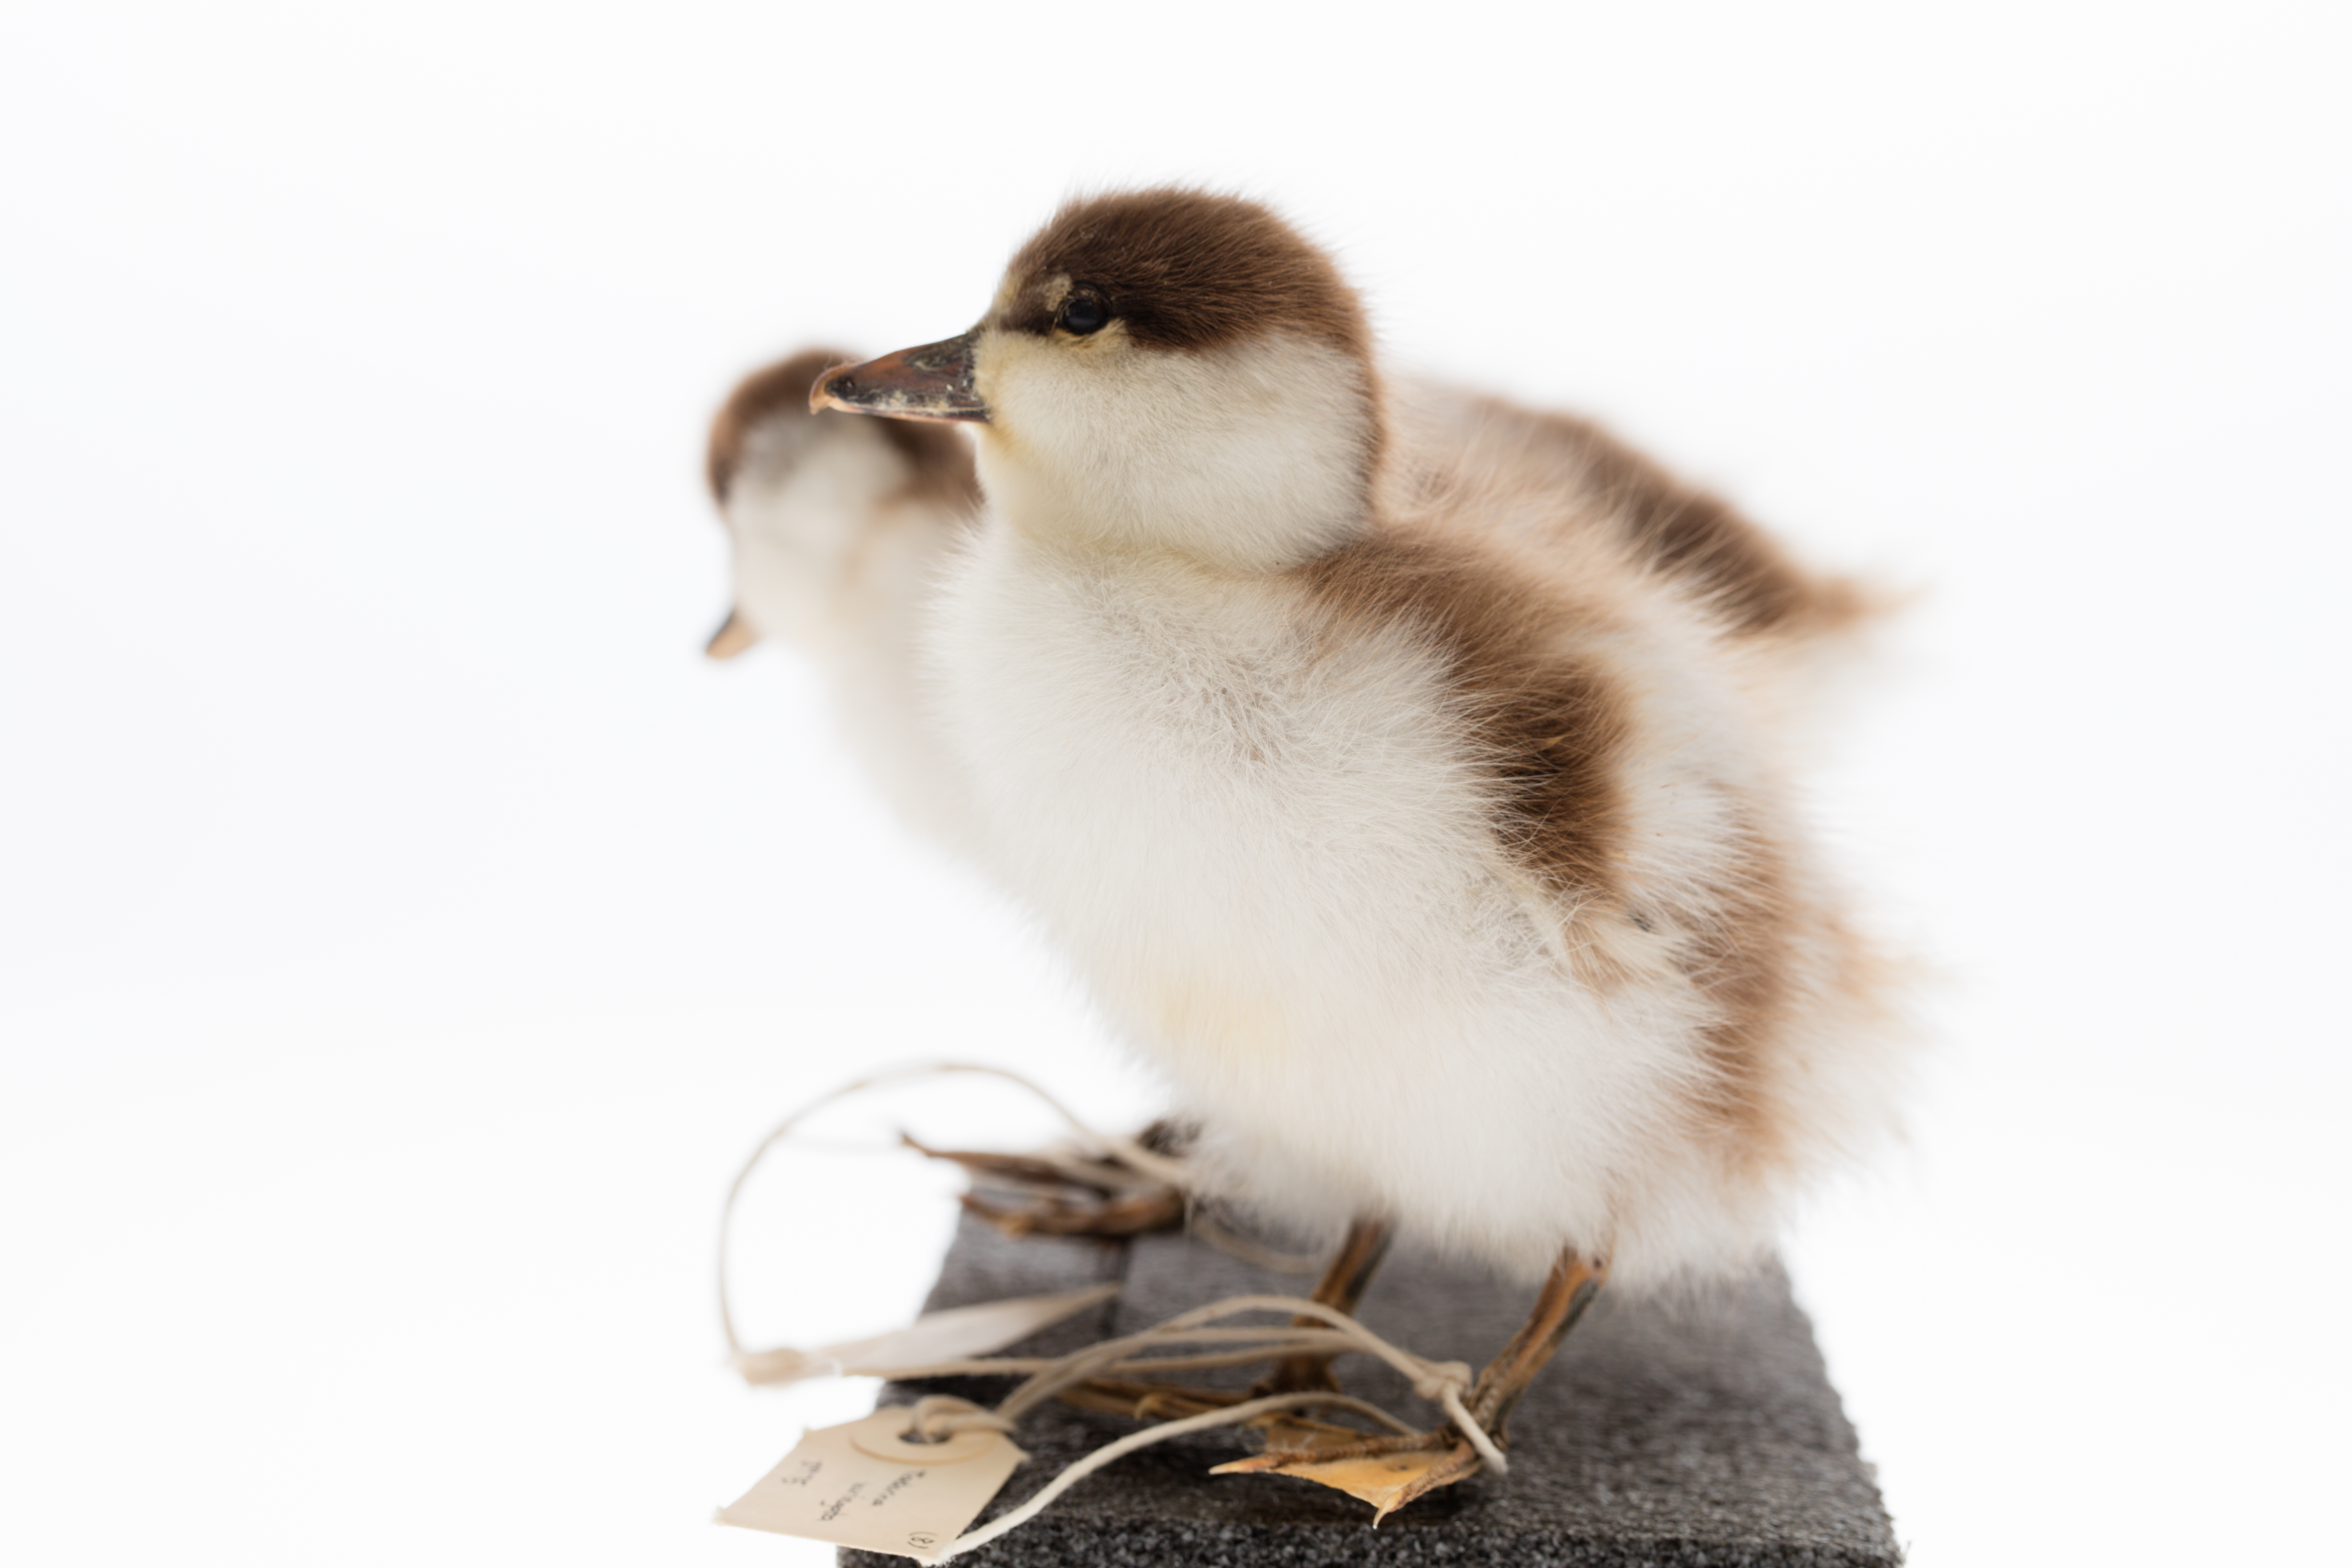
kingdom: Animalia
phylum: Chordata
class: Aves
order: Anseriformes
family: Anatidae
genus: Tadorna
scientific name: Tadorna variegata
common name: Paradise shelduck
